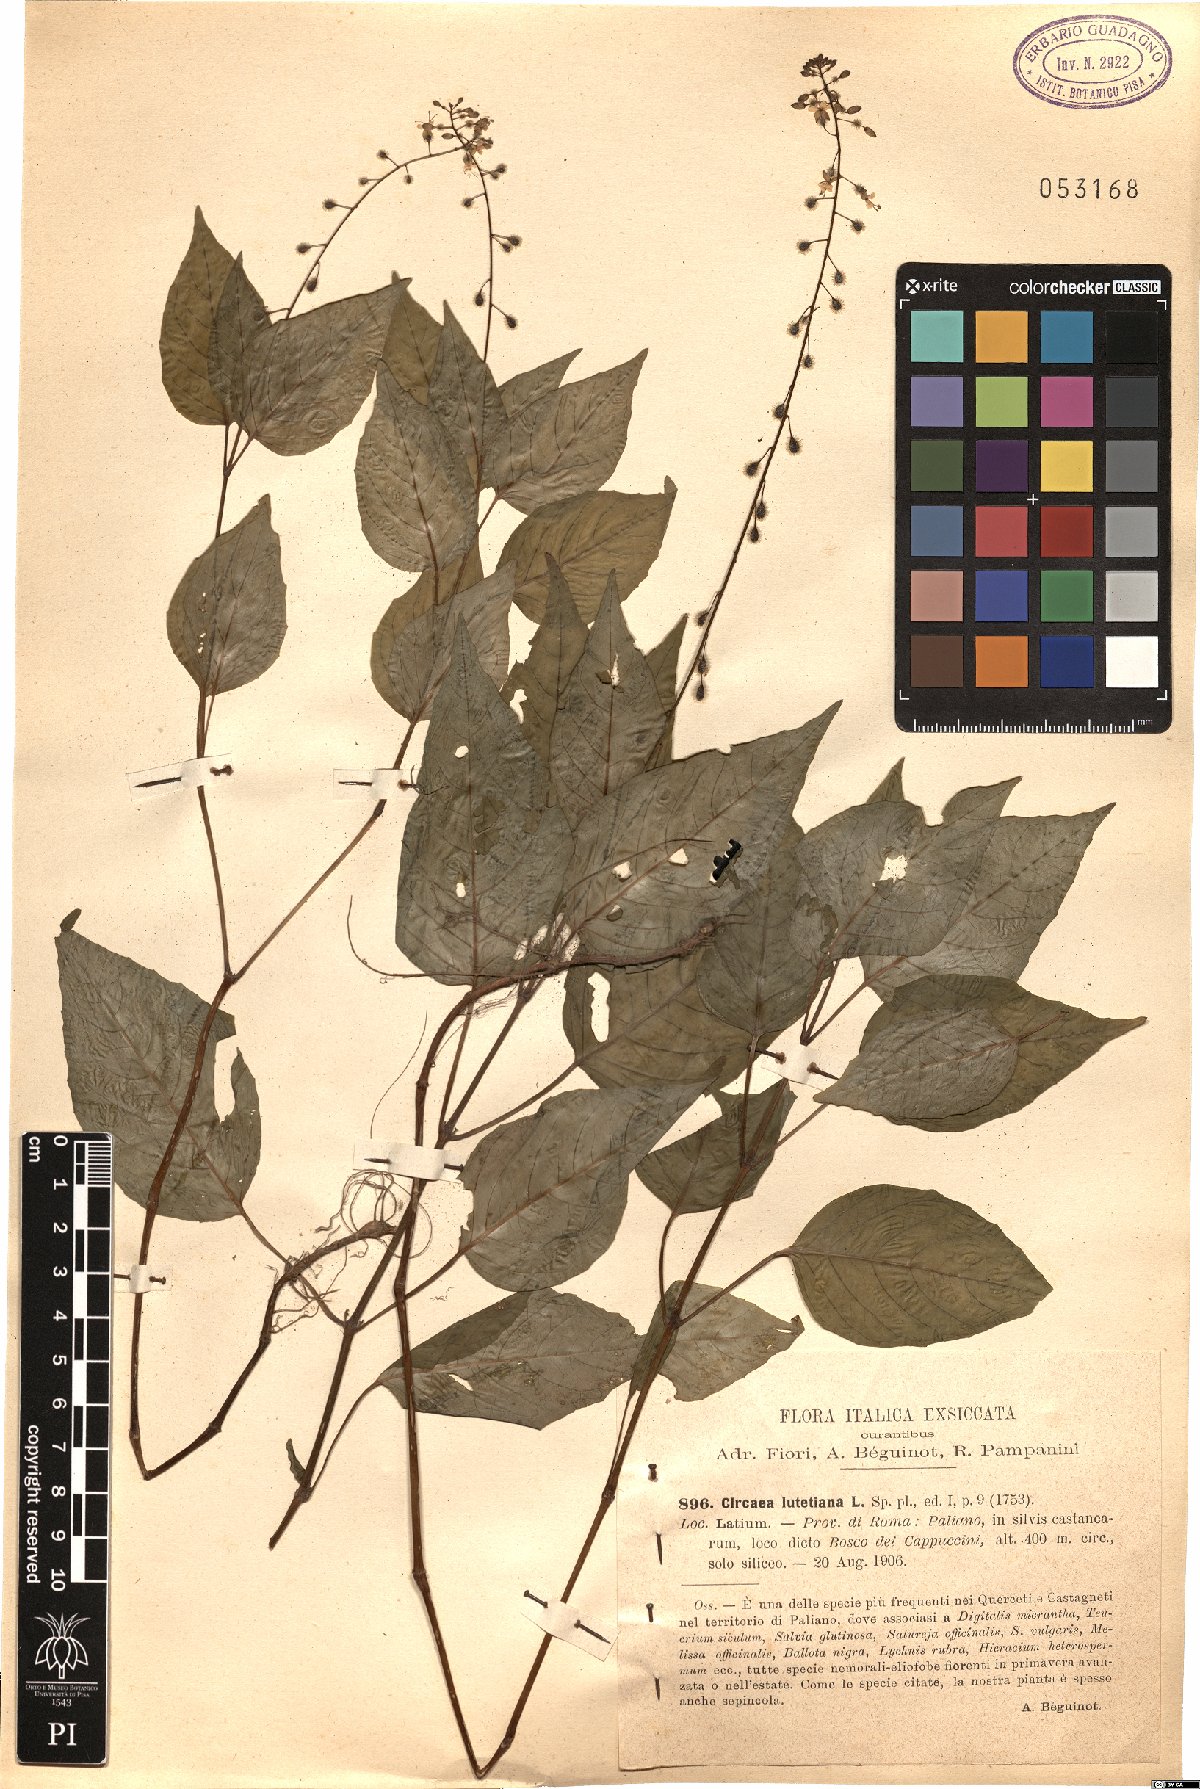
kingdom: Plantae
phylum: Tracheophyta
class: Magnoliopsida
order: Myrtales
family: Onagraceae
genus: Circaea
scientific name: Circaea lutetiana
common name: Enchanter's-nightshade
